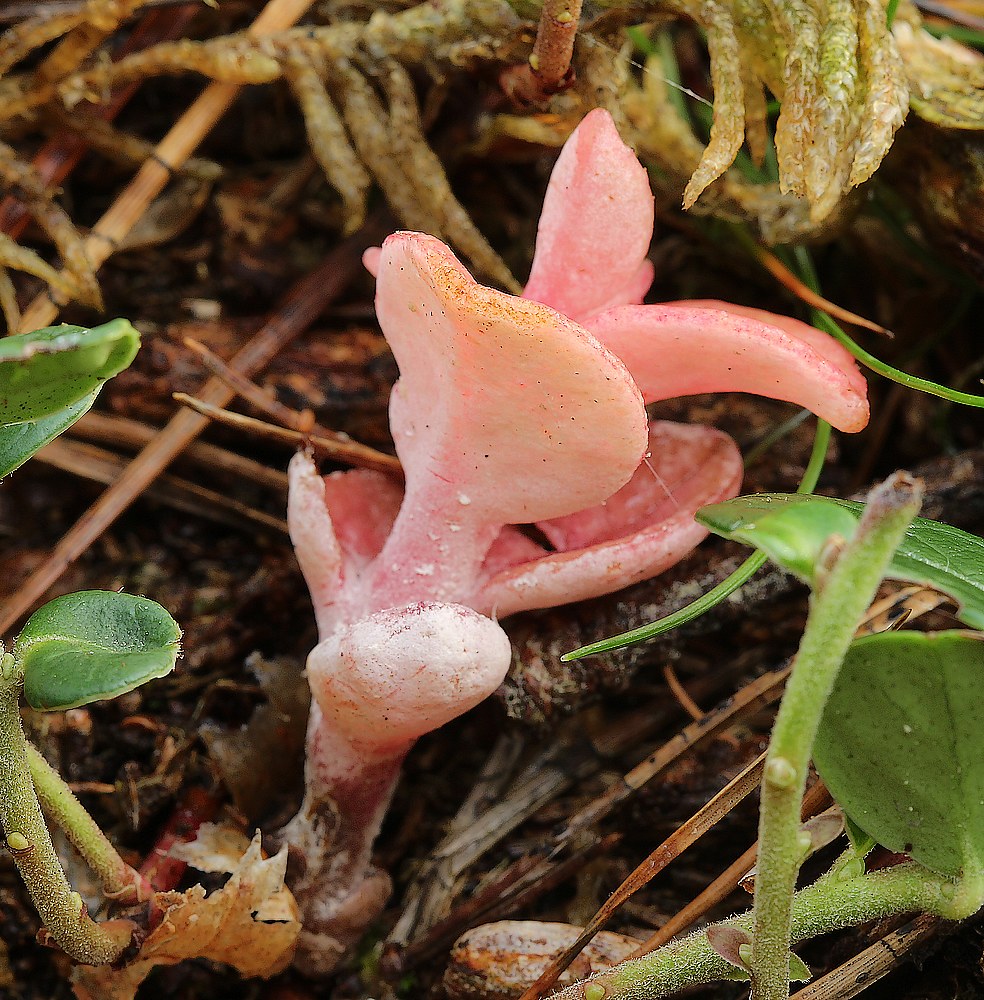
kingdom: Fungi
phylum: Basidiomycota
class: Exobasidiomycetes
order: Exobasidiales
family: Exobasidiaceae
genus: Exobasidium
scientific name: Exobasidium vaccinii
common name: tyttebærblad-bøllesvamp
